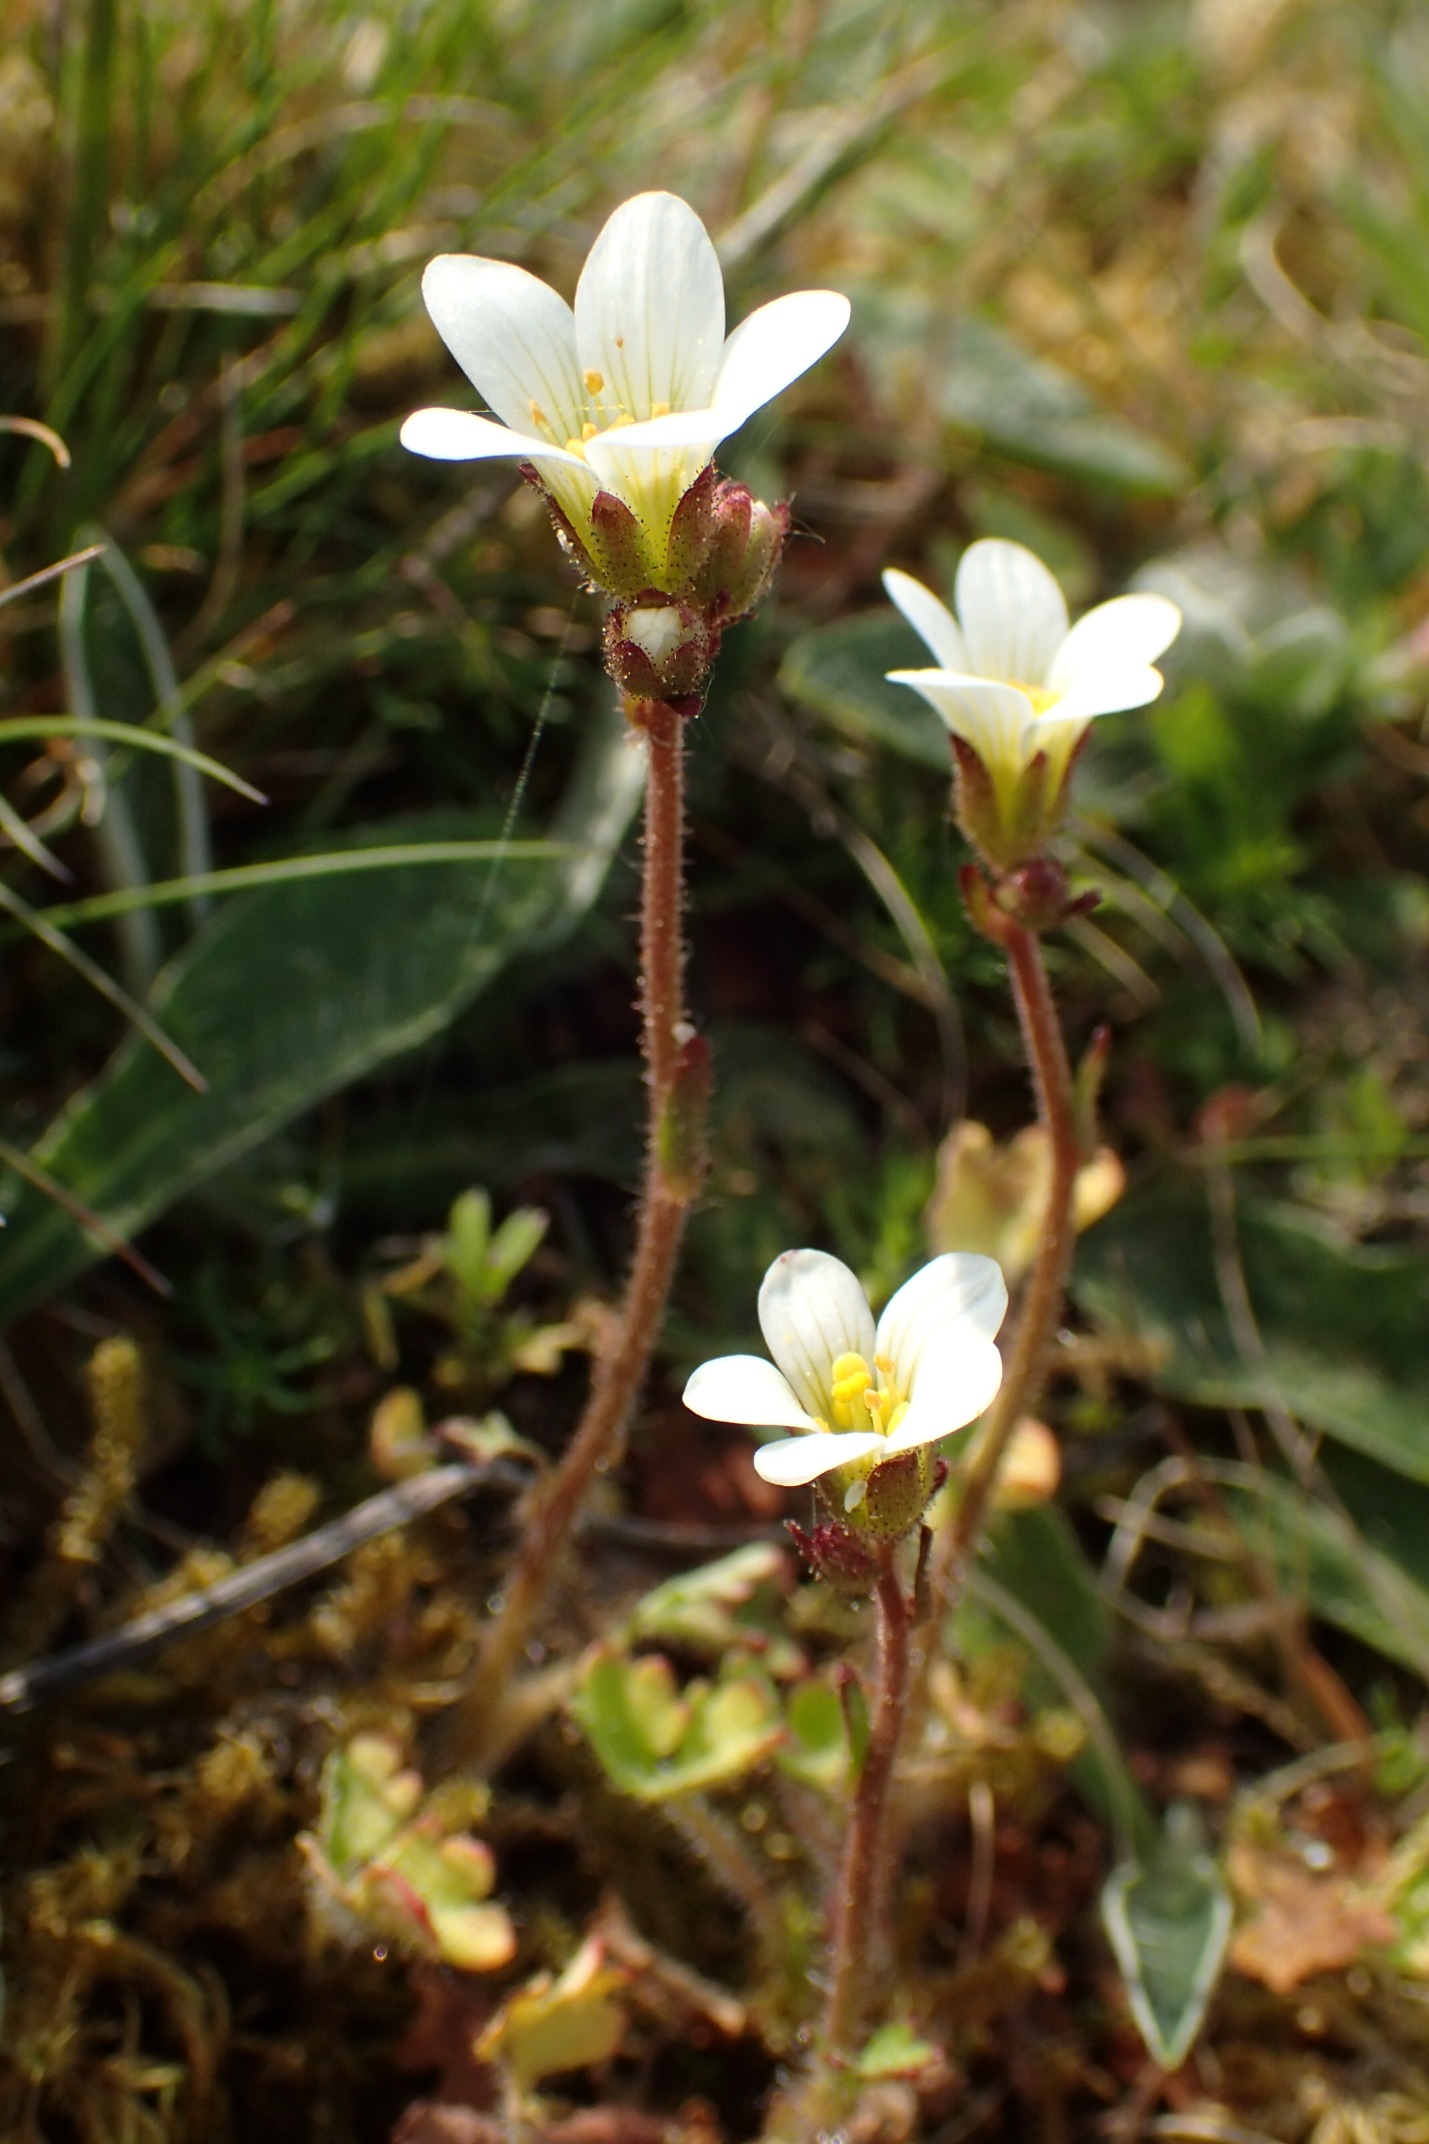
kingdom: Plantae
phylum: Tracheophyta
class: Magnoliopsida
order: Saxifragales
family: Saxifragaceae
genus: Saxifraga
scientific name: Saxifraga granulata
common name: Kornet stenbræk
